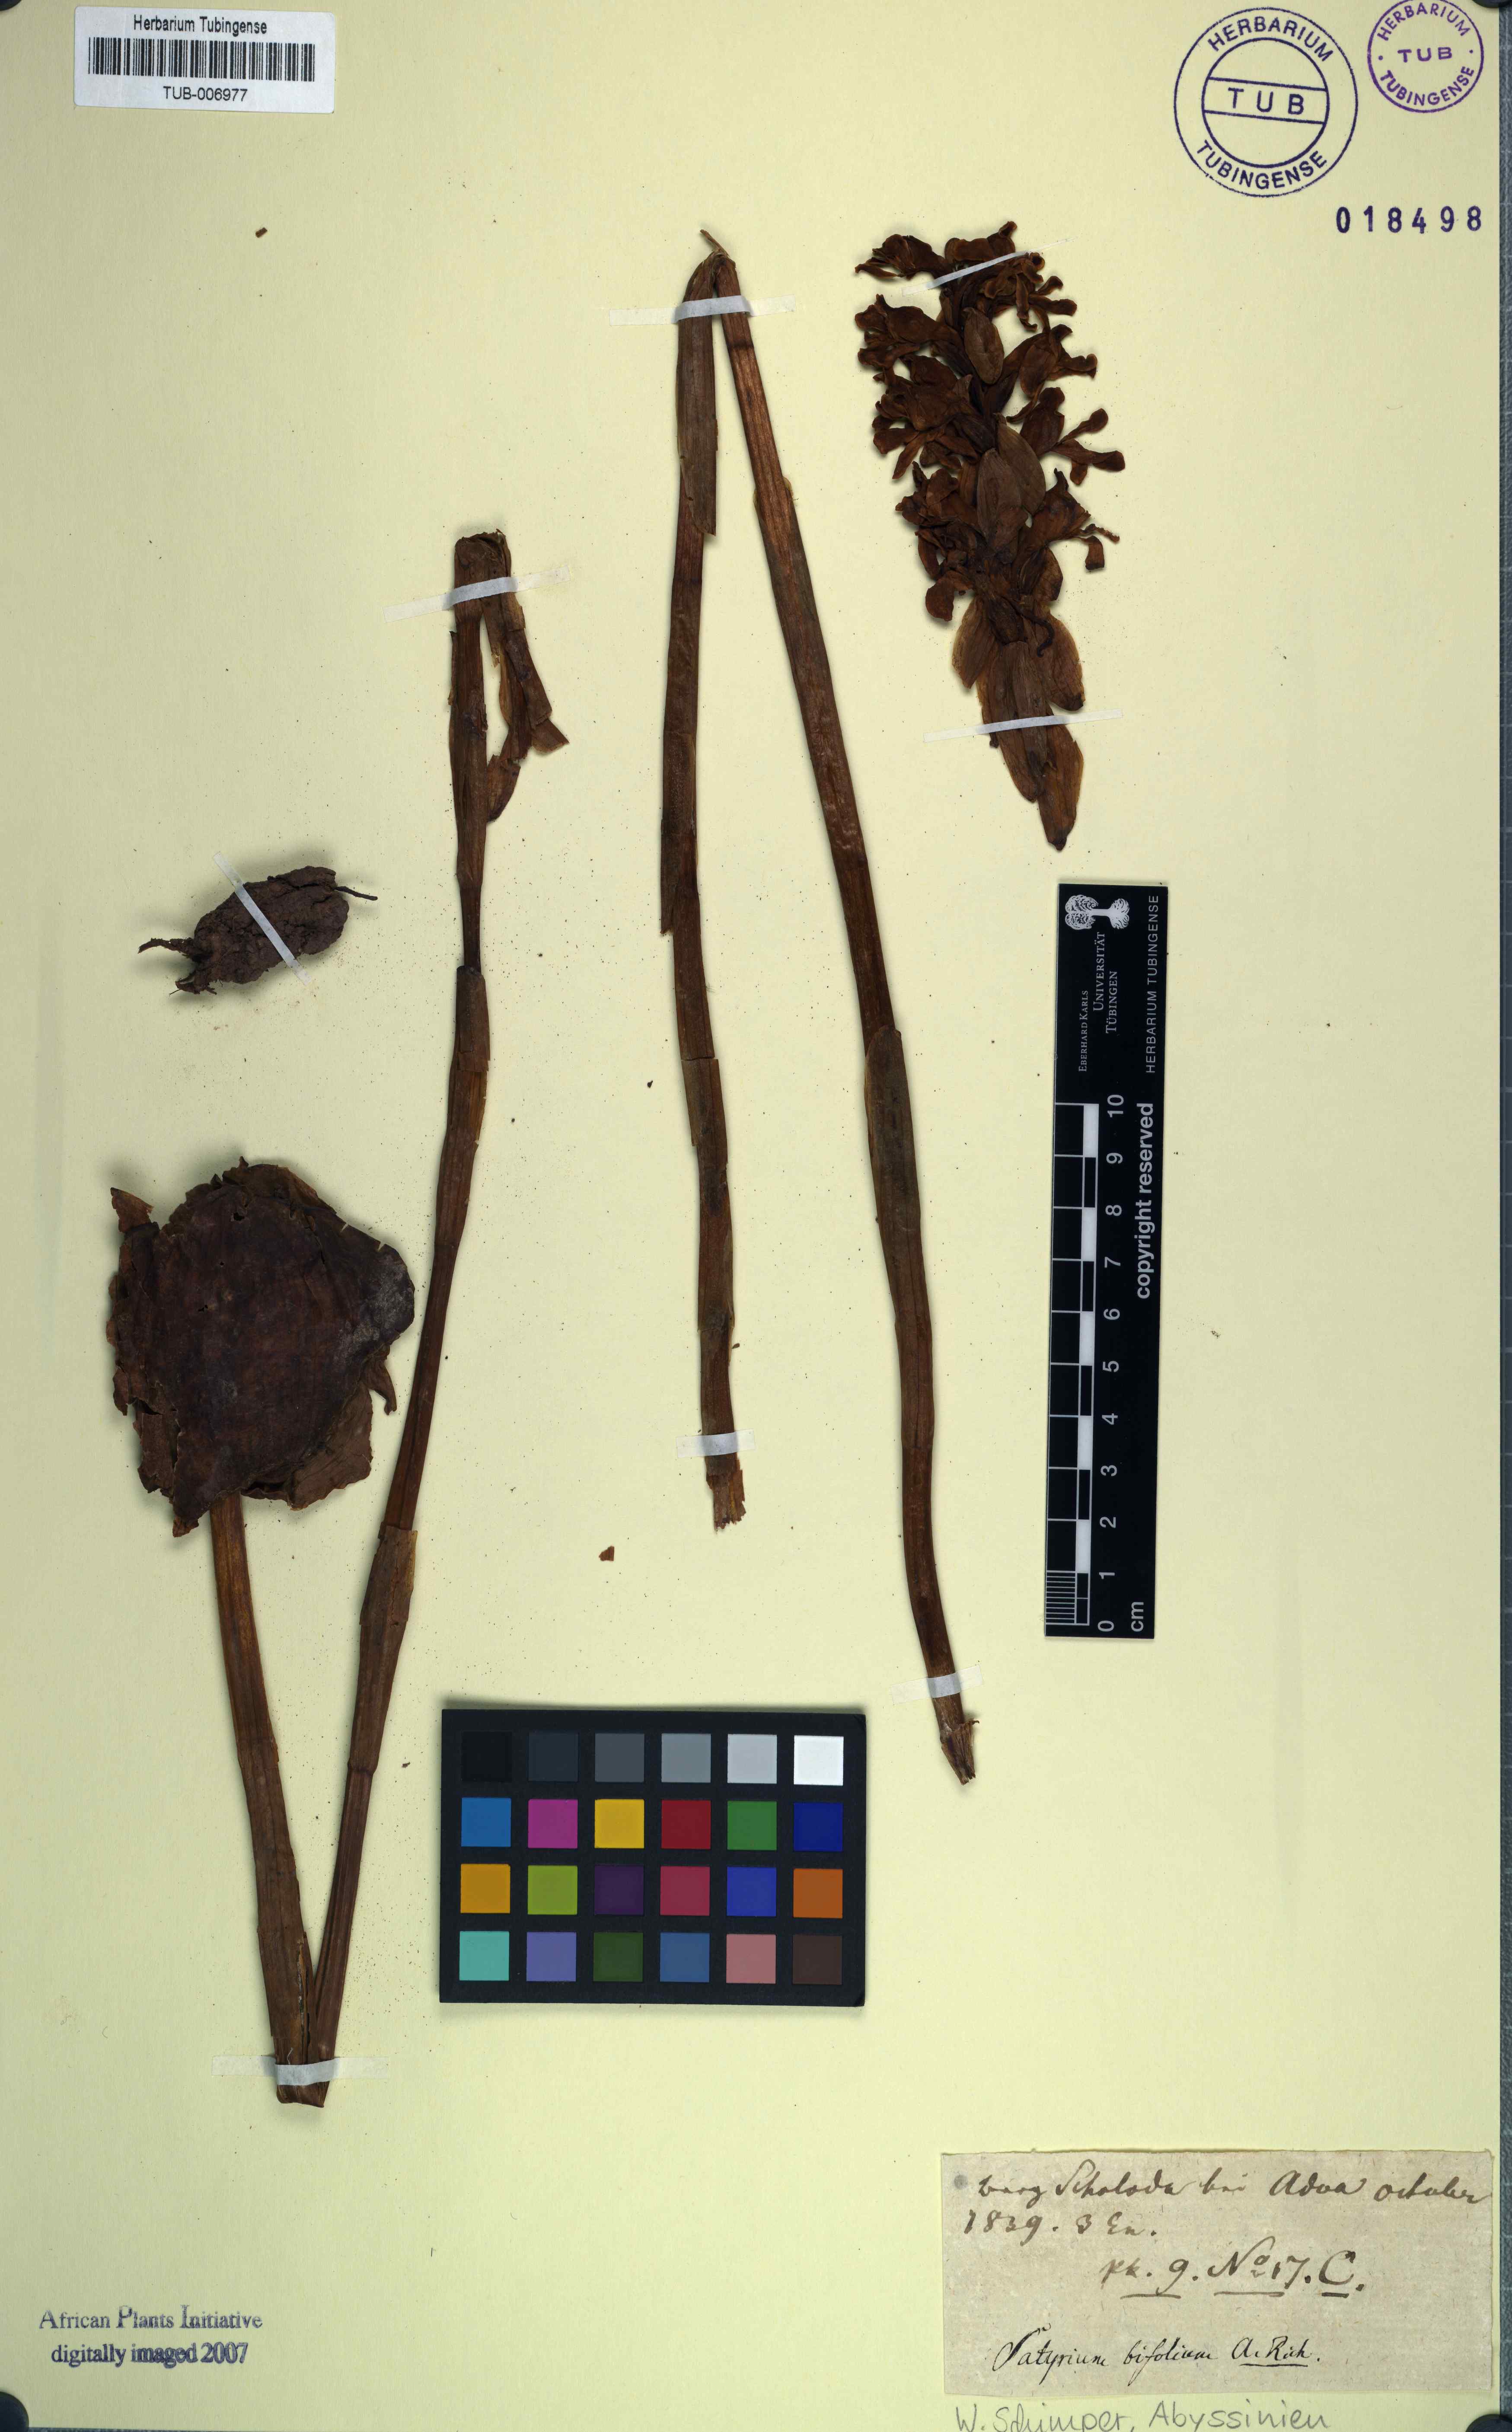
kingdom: Plantae
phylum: Tracheophyta
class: Liliopsida
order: Asparagales
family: Orchidaceae
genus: Satyrium
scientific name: Satyrium aethiopicum
